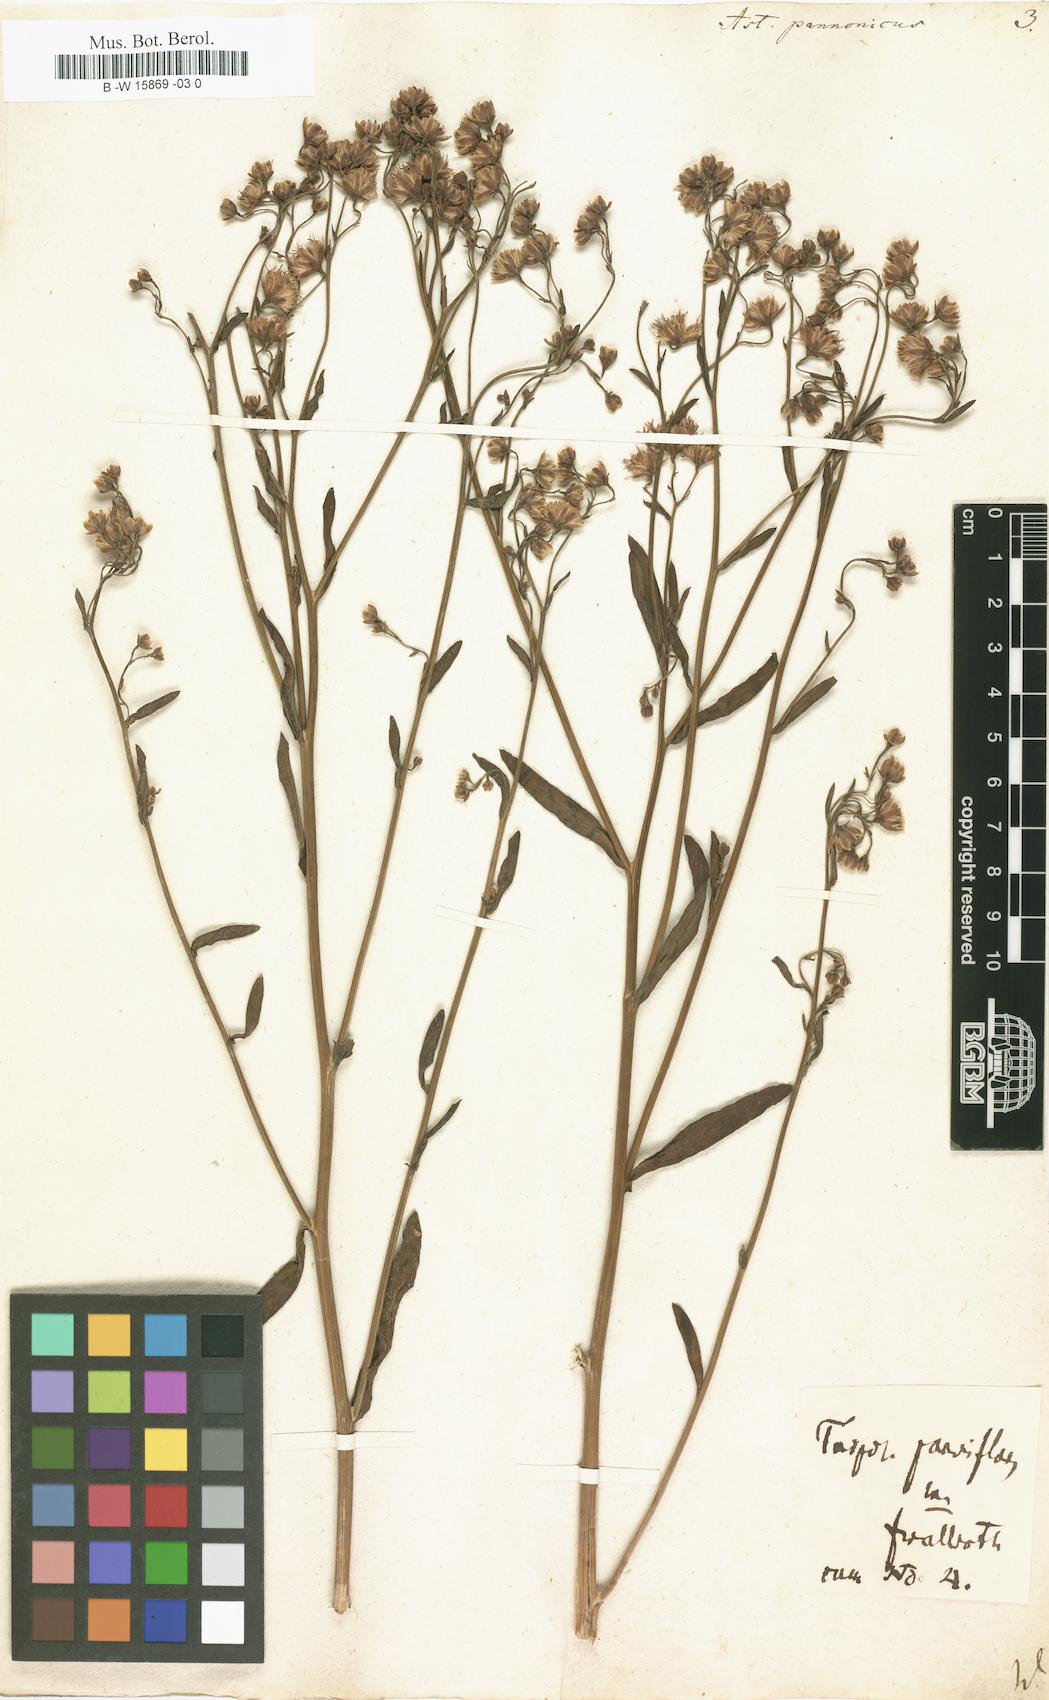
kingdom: Plantae
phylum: Tracheophyta
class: Magnoliopsida
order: Asterales
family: Asteraceae
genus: Tripolium
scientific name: Tripolium pannonicum
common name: Sea aster
